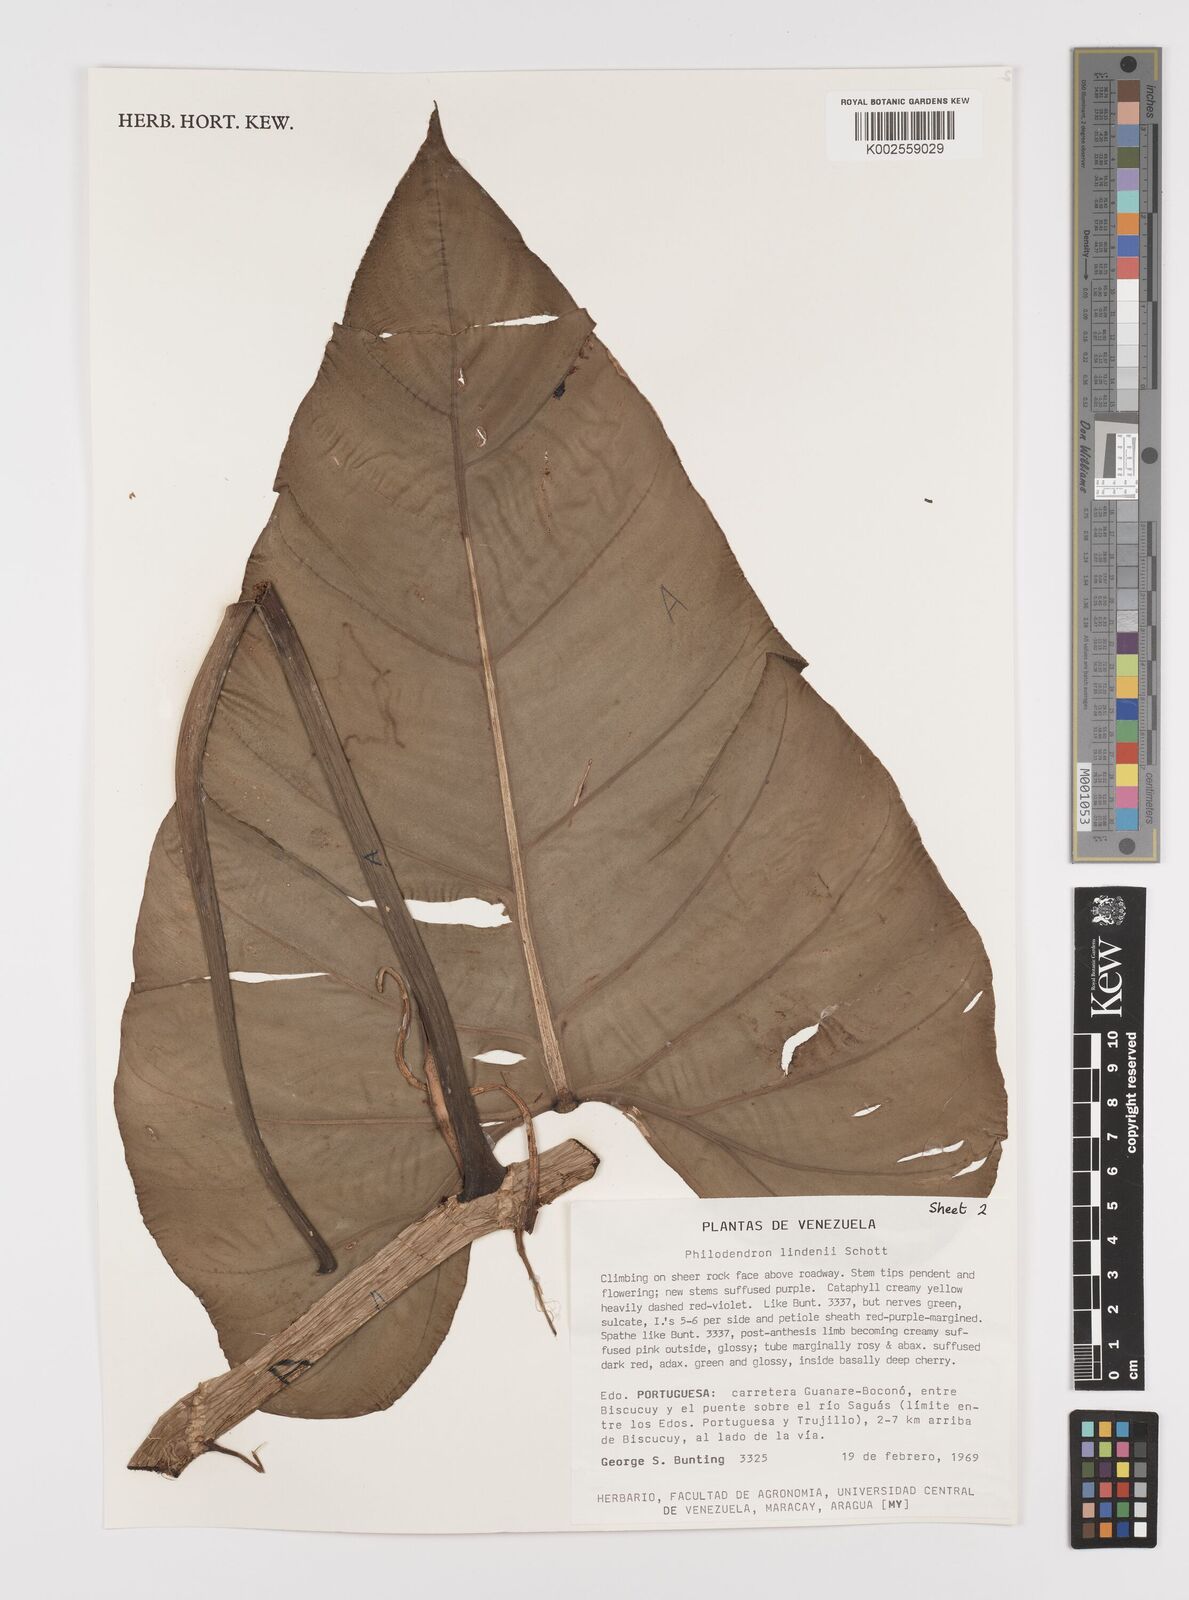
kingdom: Plantae
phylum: Tracheophyta
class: Liliopsida
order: Alismatales
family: Araceae
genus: Philodendron
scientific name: Philodendron lindenii
